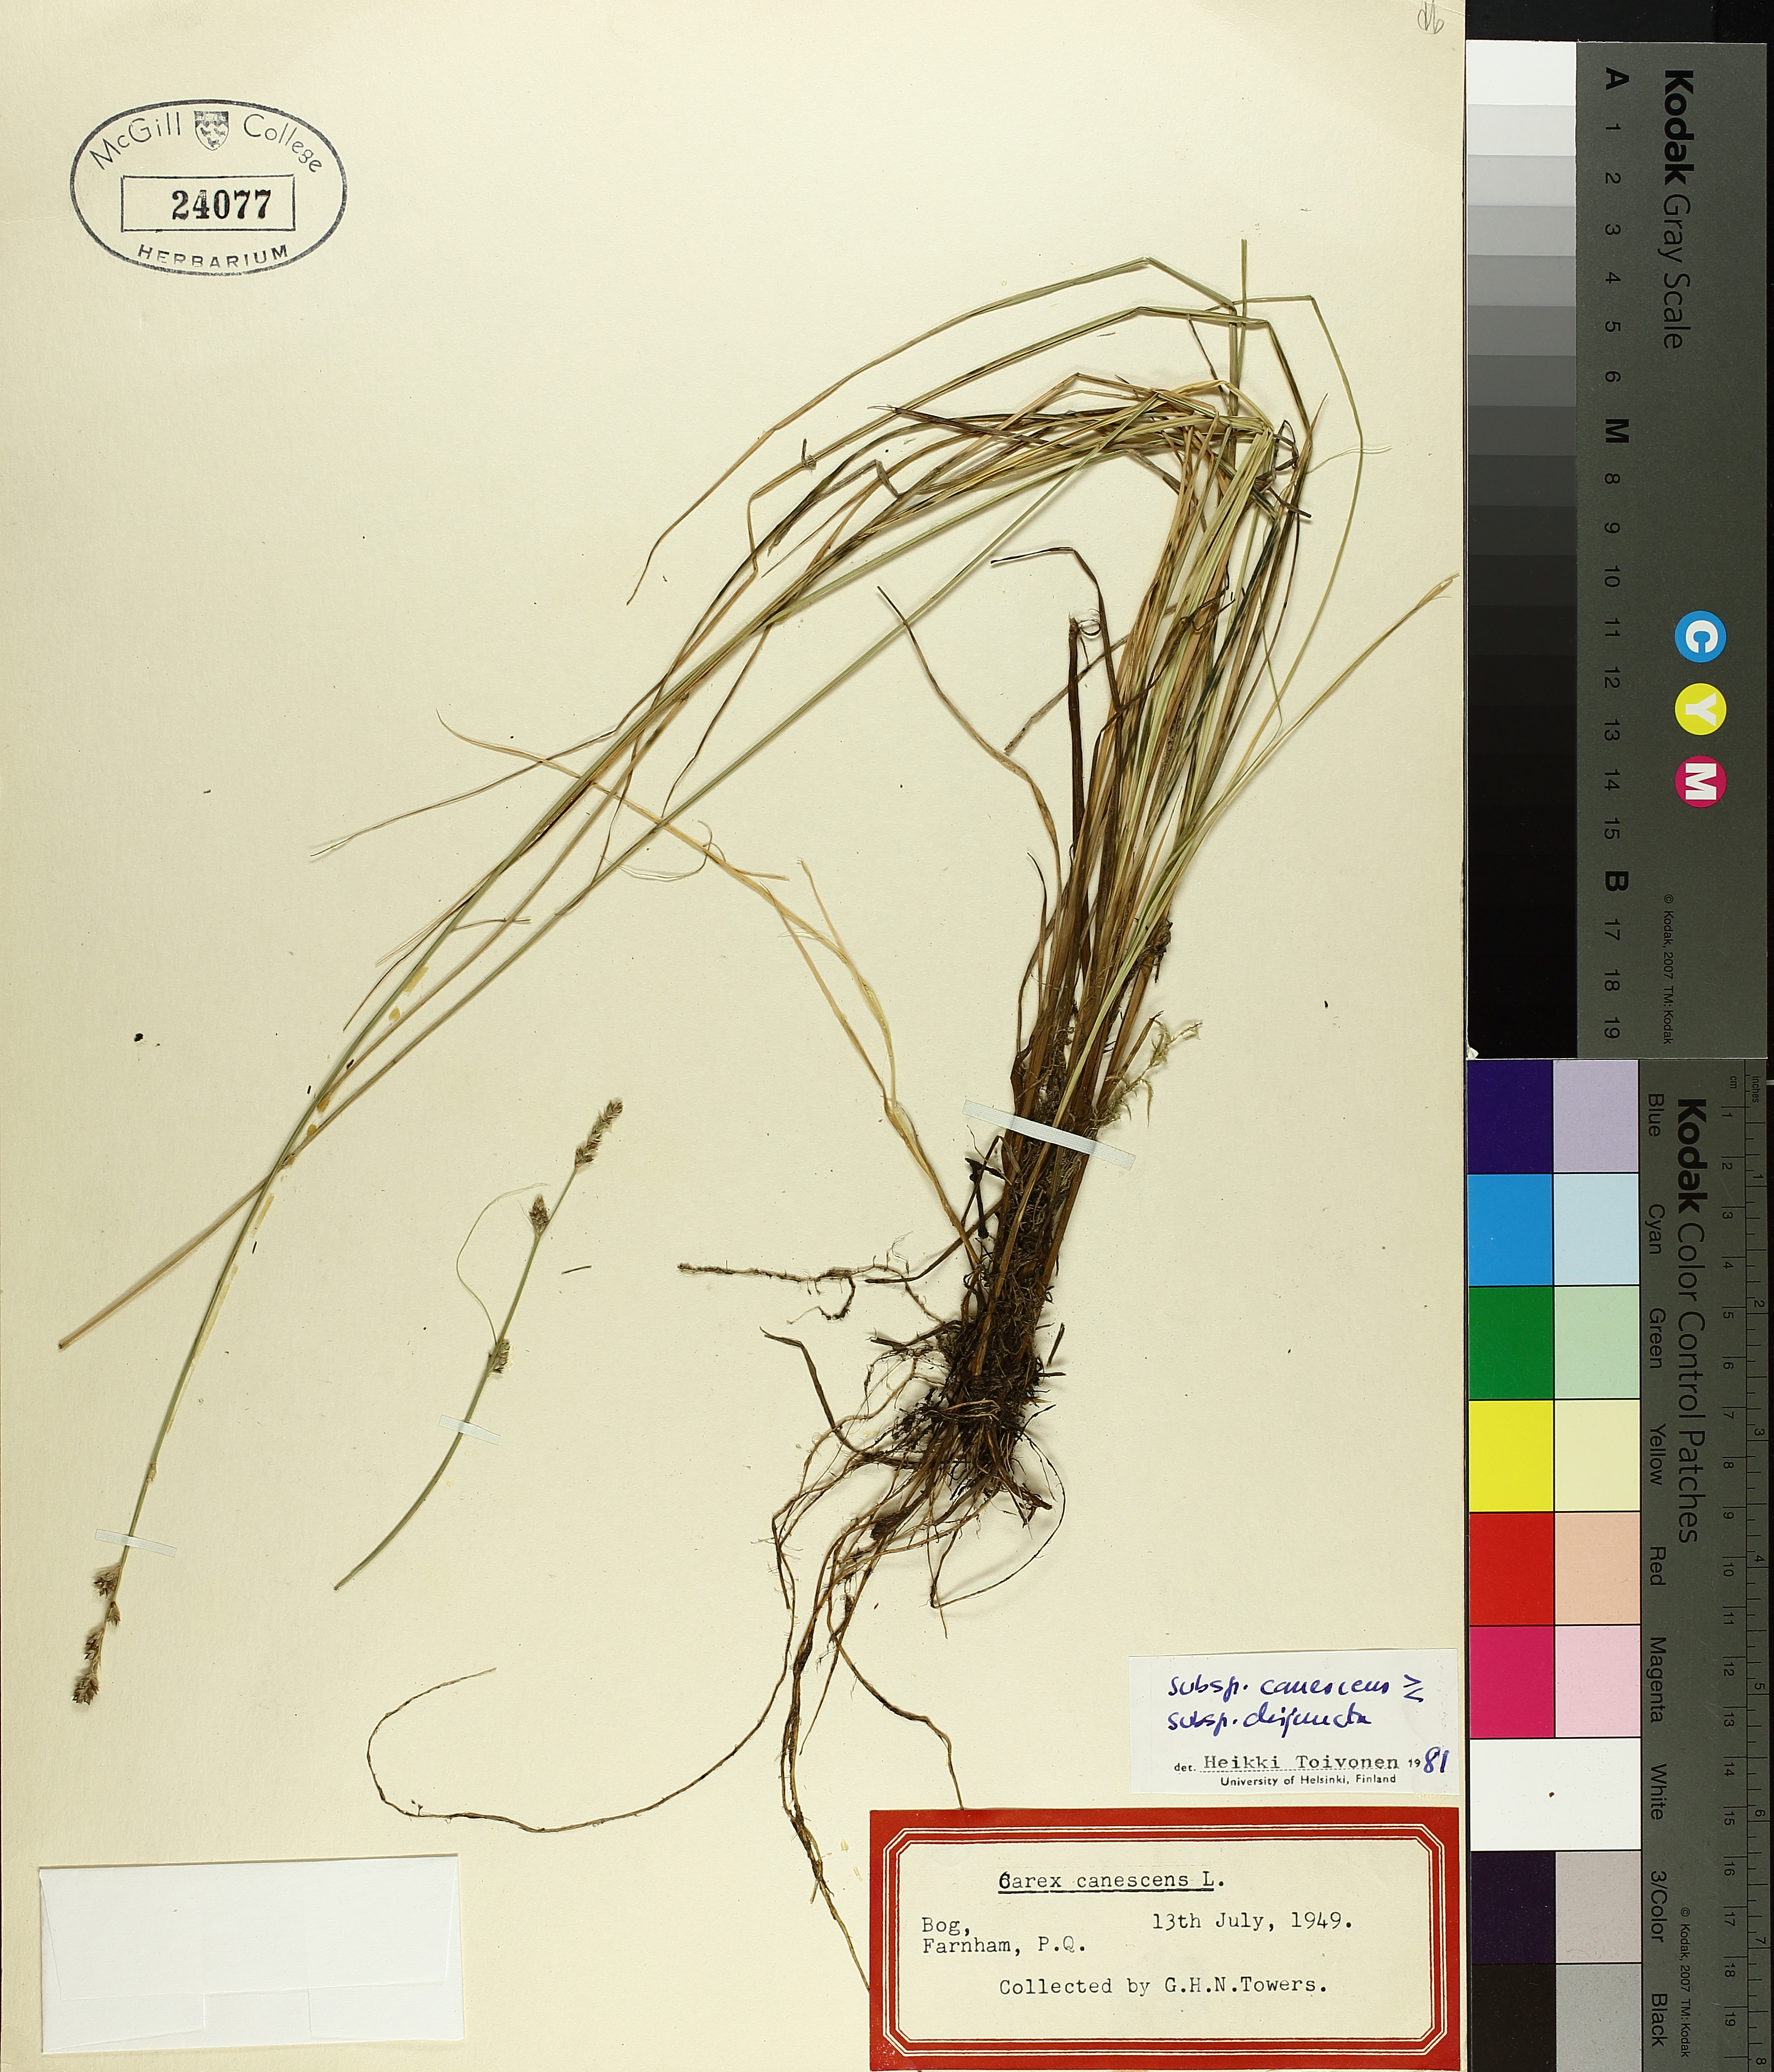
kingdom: Plantae
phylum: Tracheophyta
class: Liliopsida
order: Poales
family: Cyperaceae
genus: Carex
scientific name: Carex canescens
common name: White sedge
